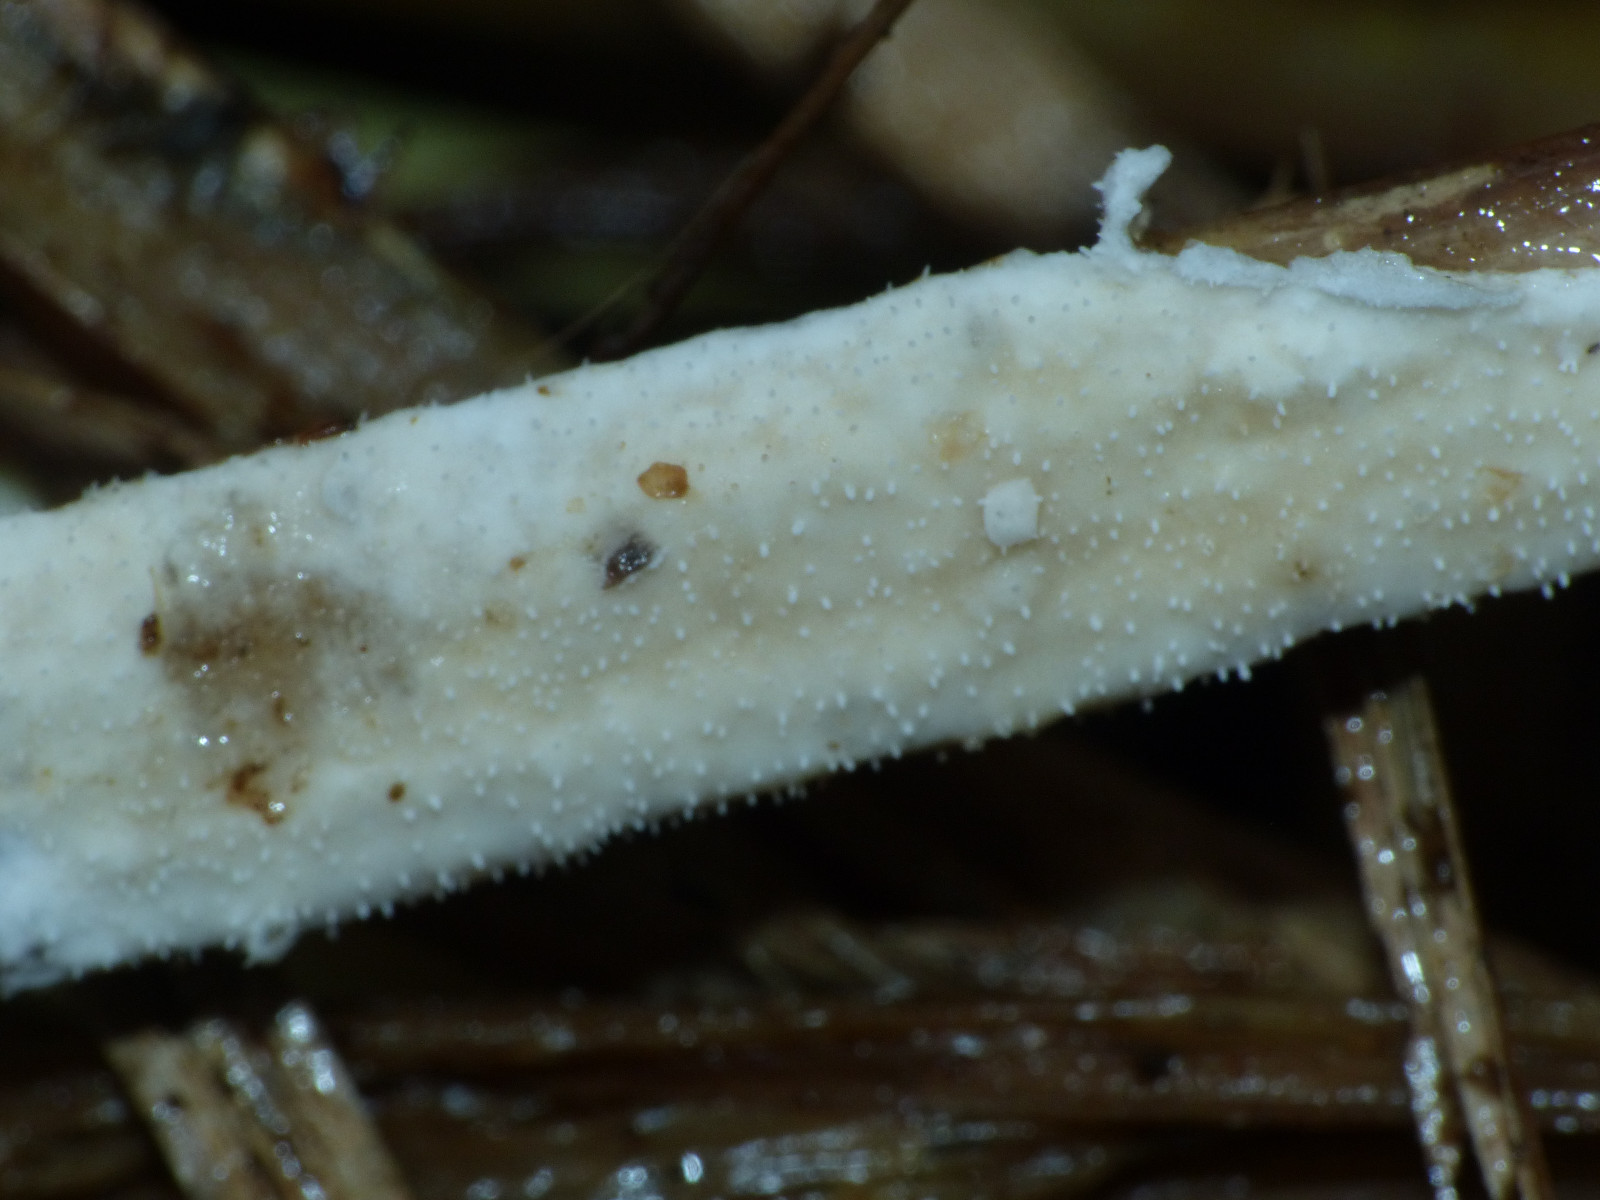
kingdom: Fungi
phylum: Basidiomycota
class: Agaricomycetes
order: Polyporales
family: Polyporaceae
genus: Epithele
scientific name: Epithele typhae
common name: starpig
